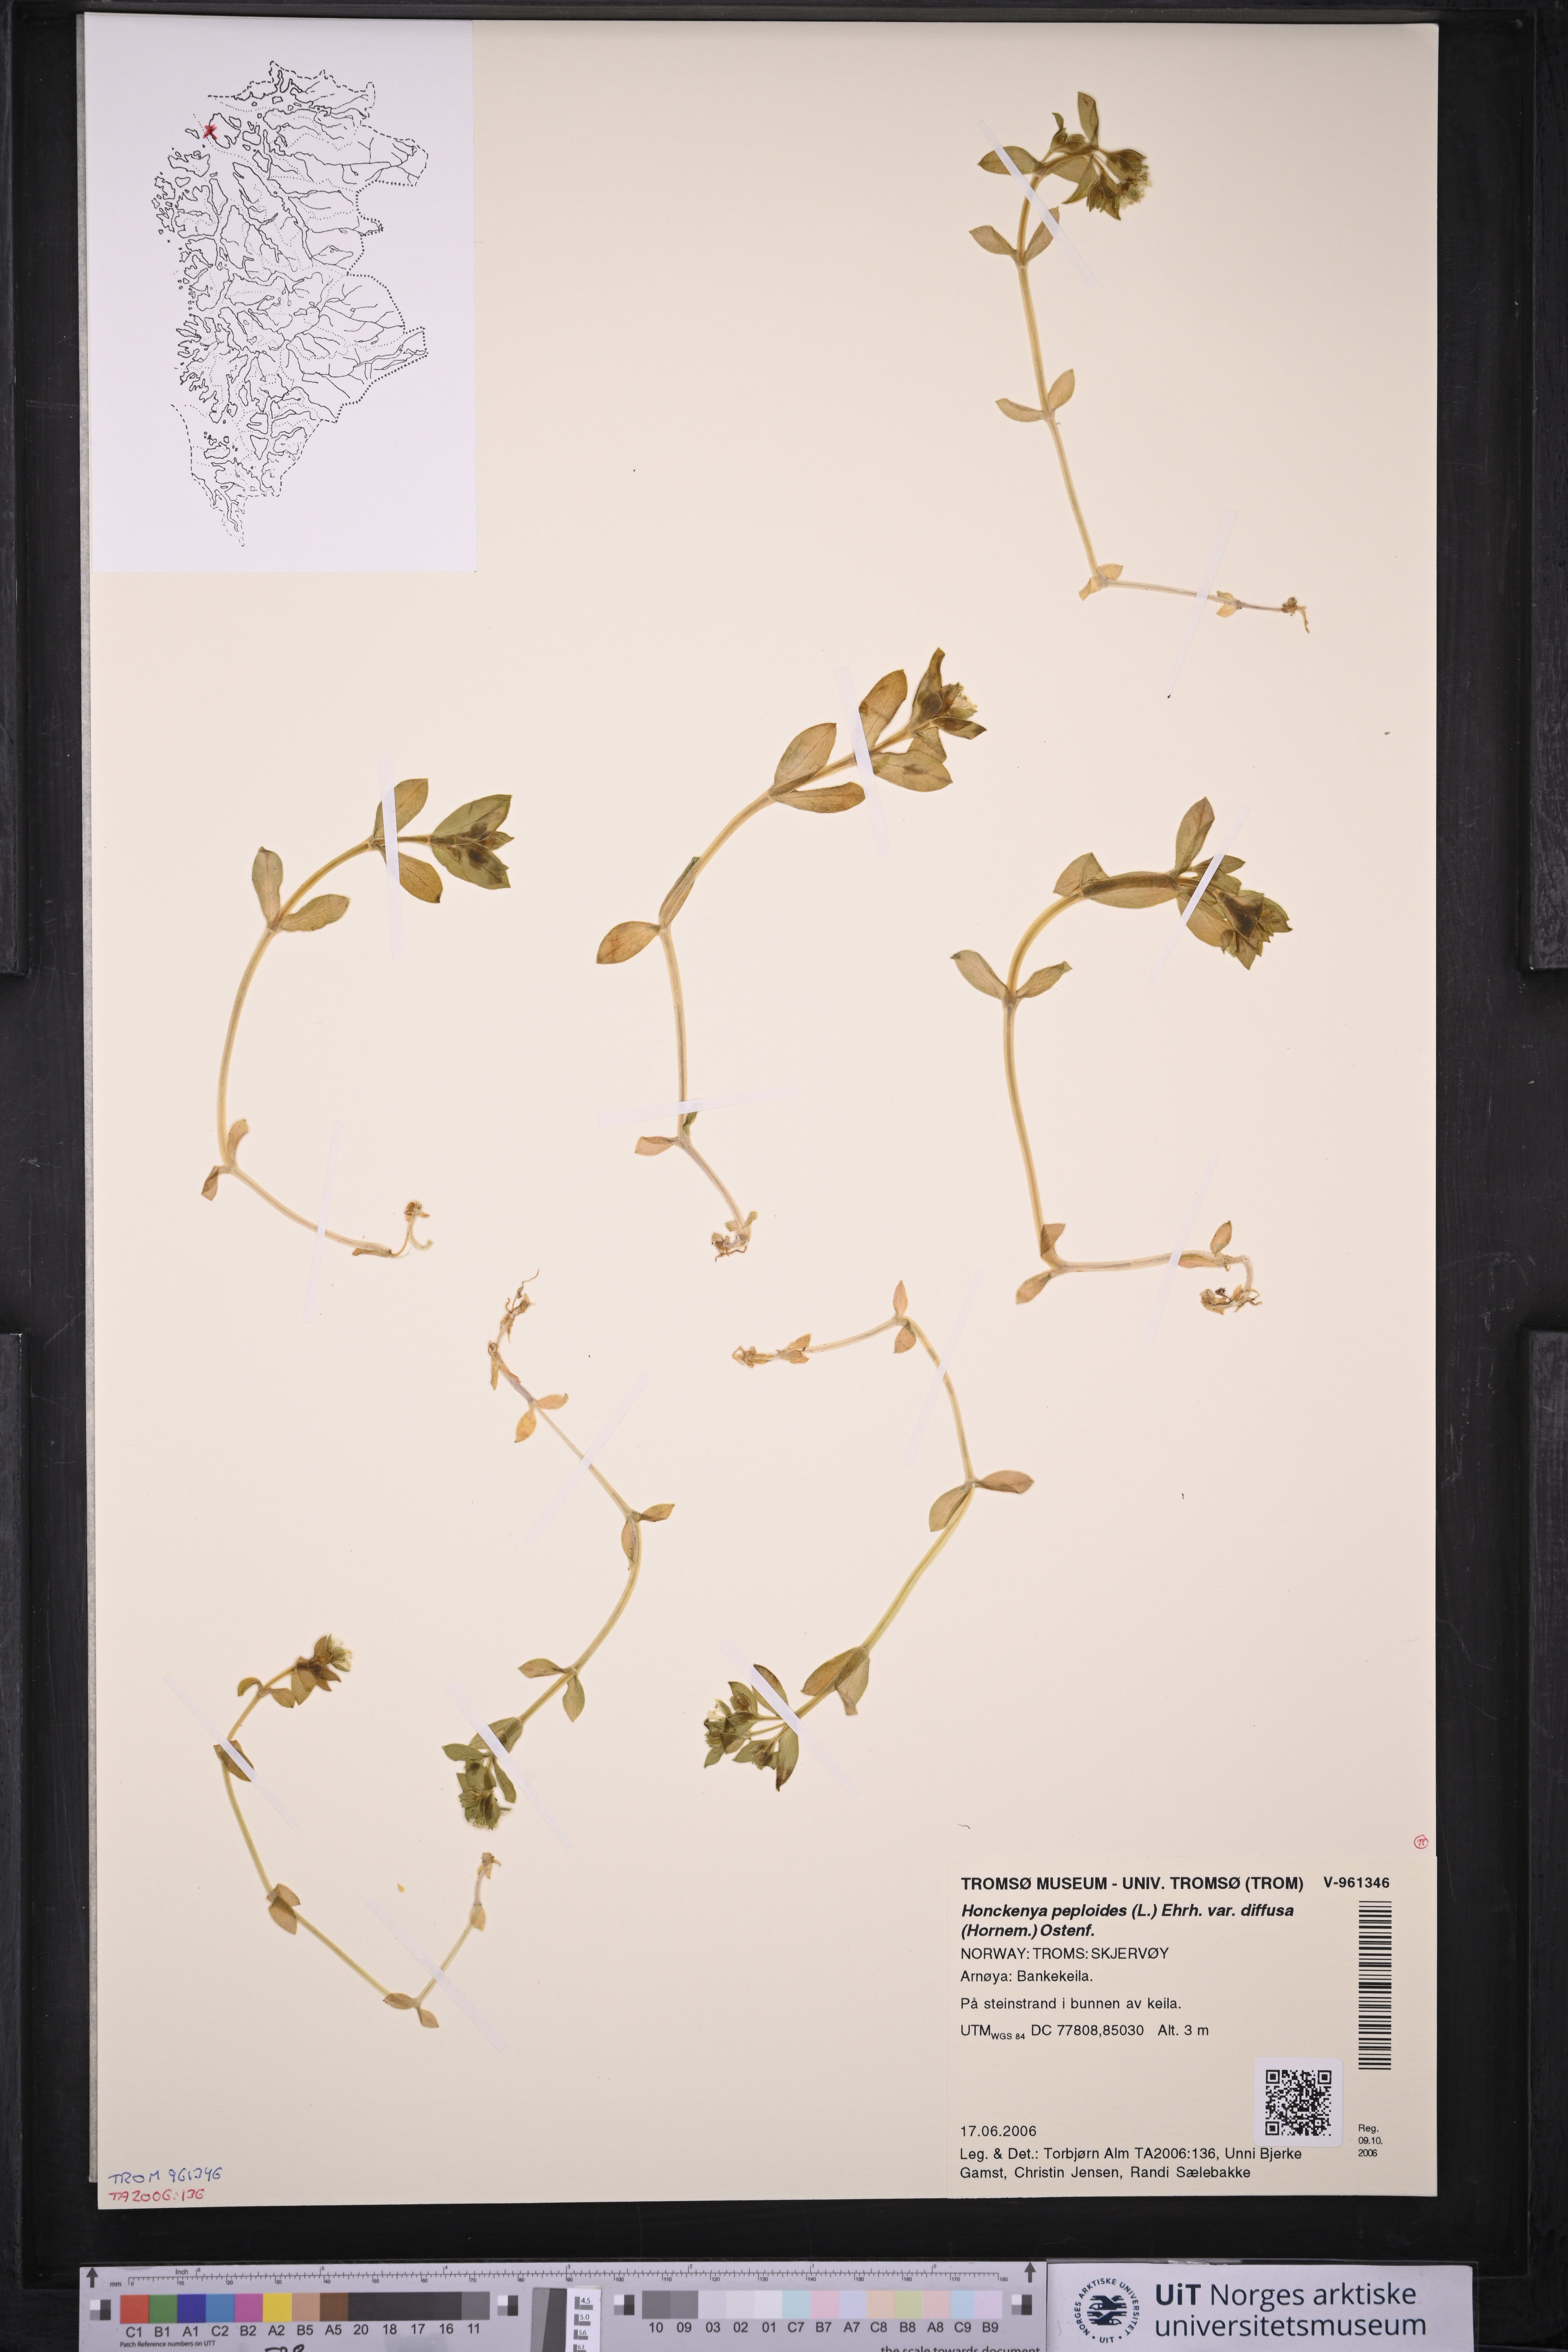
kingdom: Plantae
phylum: Tracheophyta
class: Magnoliopsida
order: Caryophyllales
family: Caryophyllaceae
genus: Honckenya
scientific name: Honckenya peploides
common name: Sea sandwort
